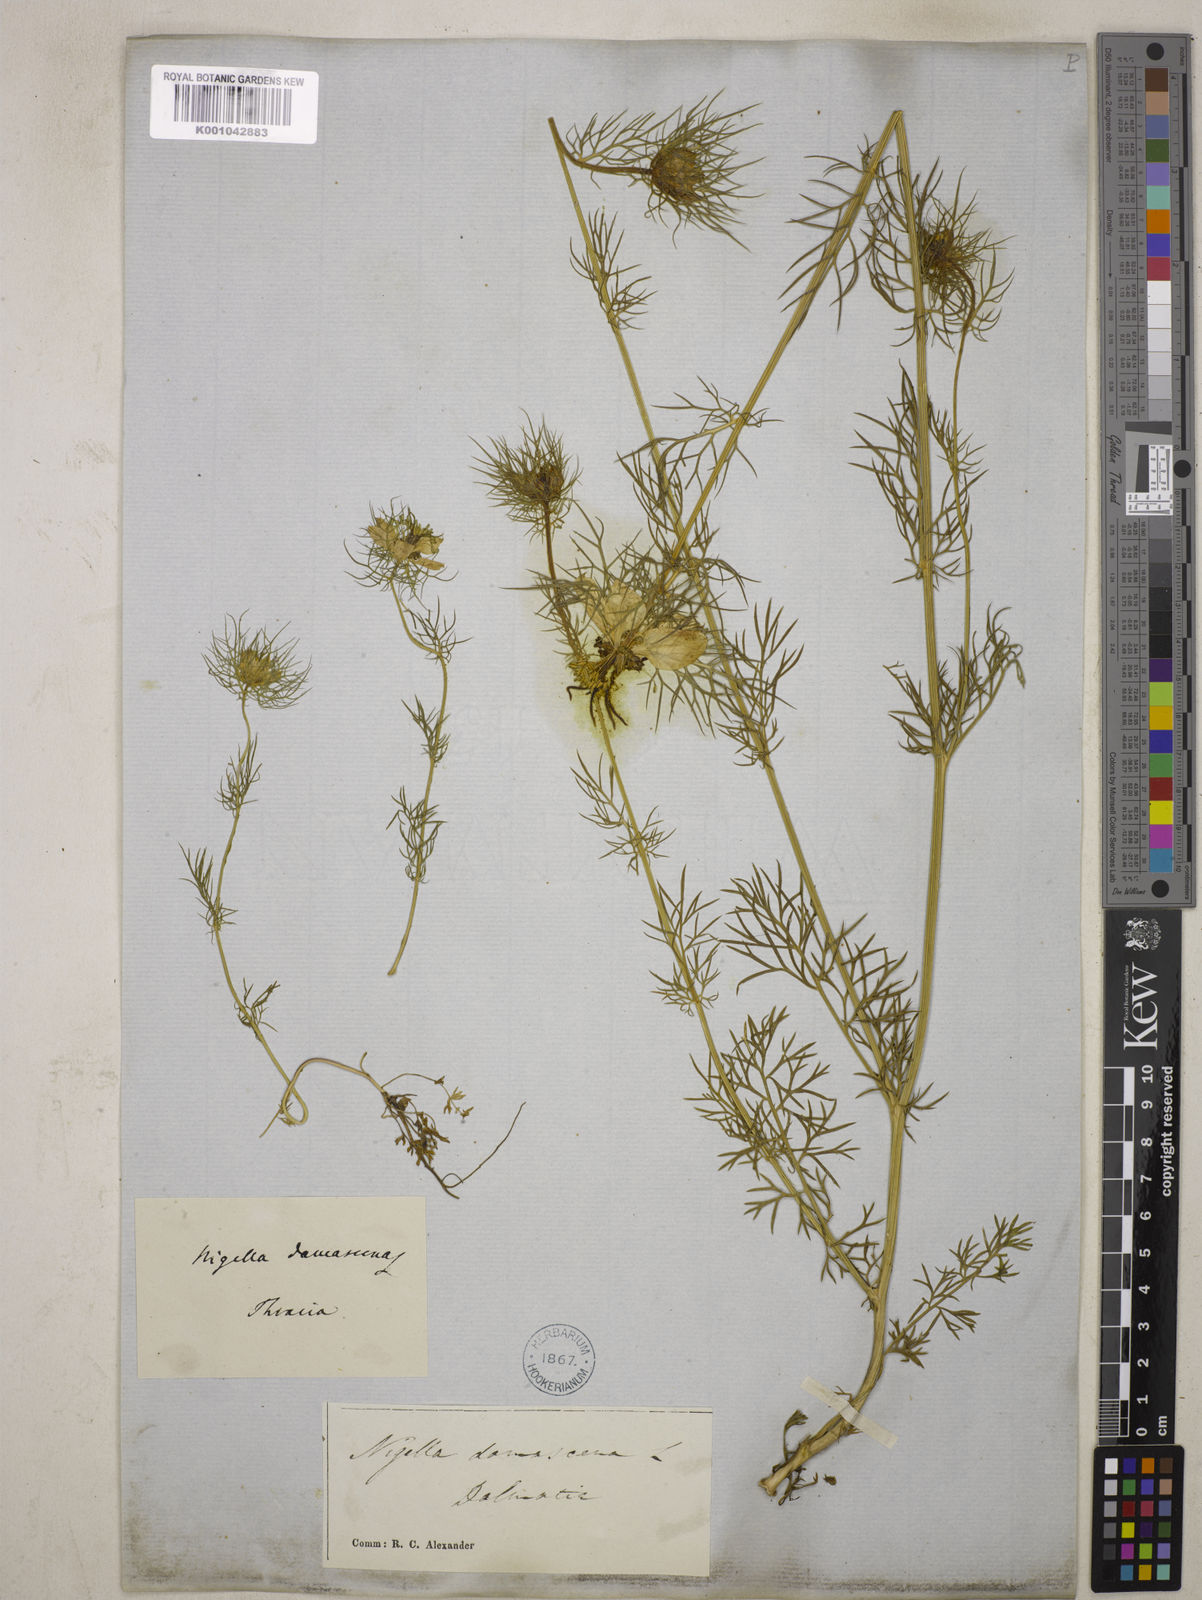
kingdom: Plantae
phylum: Tracheophyta
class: Magnoliopsida
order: Ranunculales
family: Ranunculaceae
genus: Nigella
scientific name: Nigella damascena
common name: Love-in-a-mist
